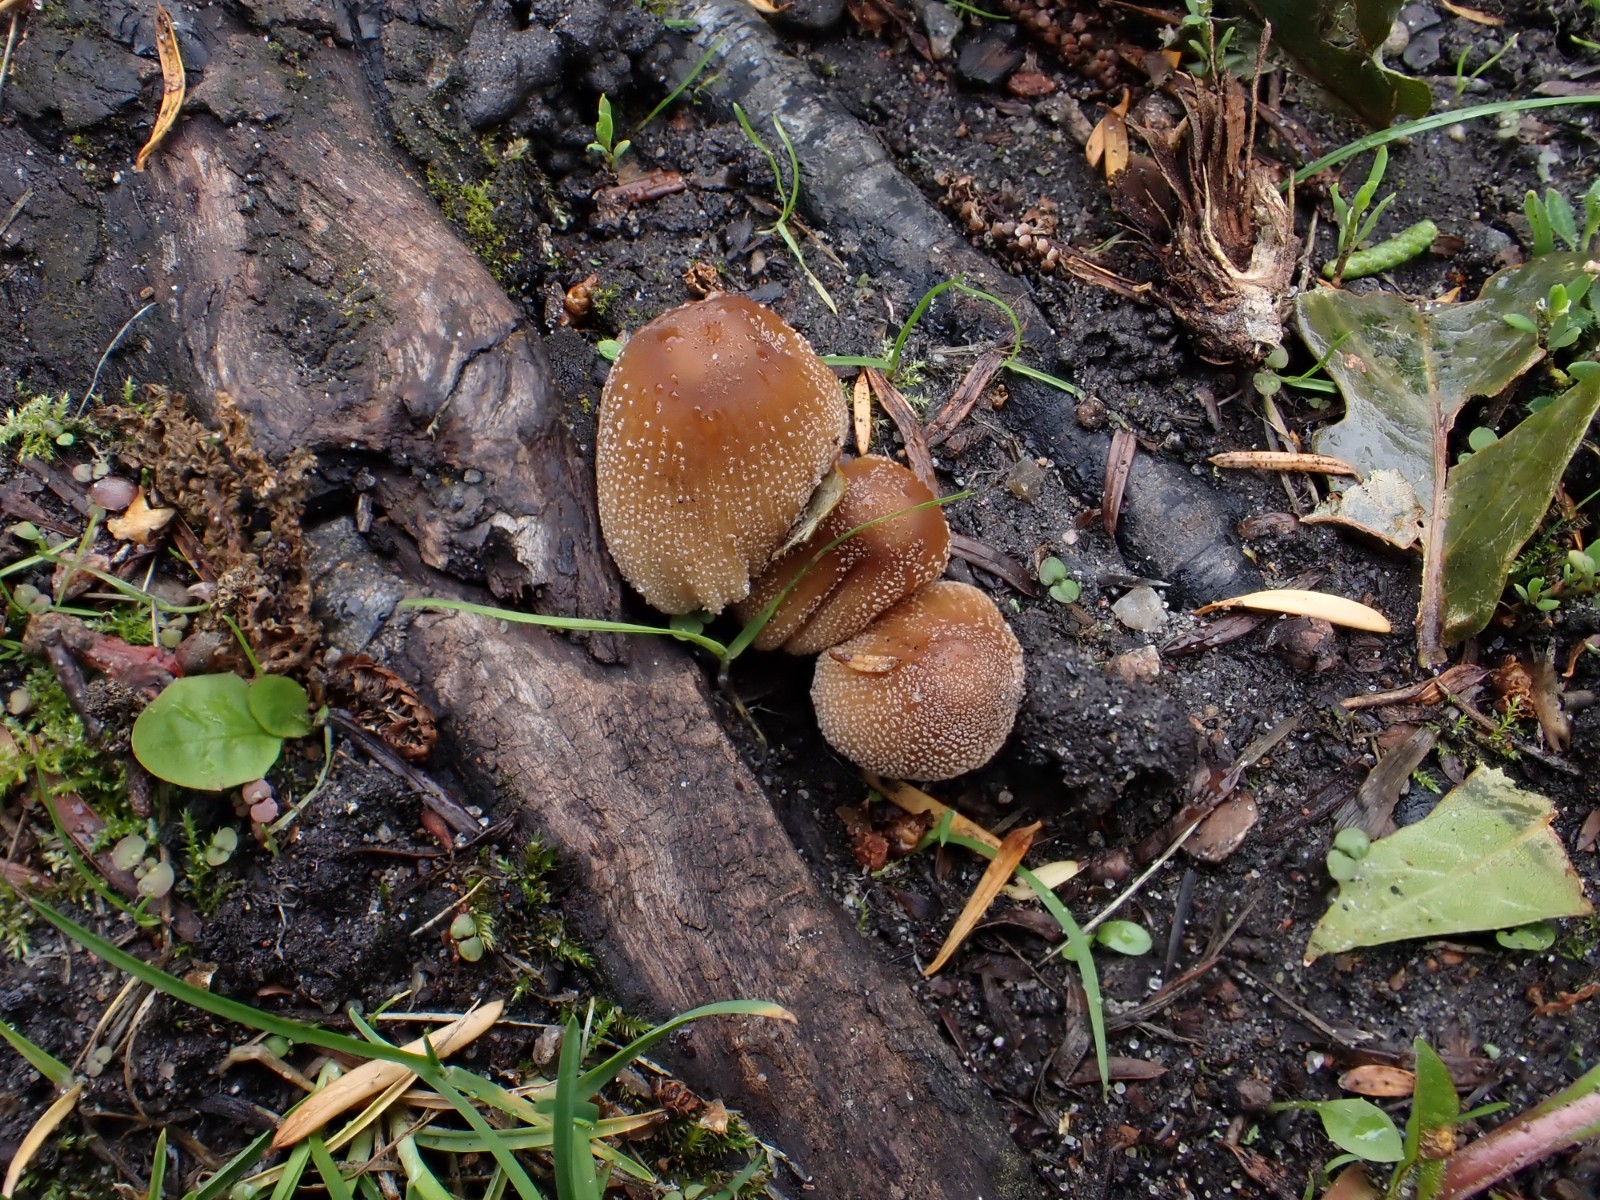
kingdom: Fungi
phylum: Basidiomycota
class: Agaricomycetes
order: Agaricales
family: Psathyrellaceae
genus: Coprinellus
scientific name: Coprinellus micaceus
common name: glimmer-blækhat
